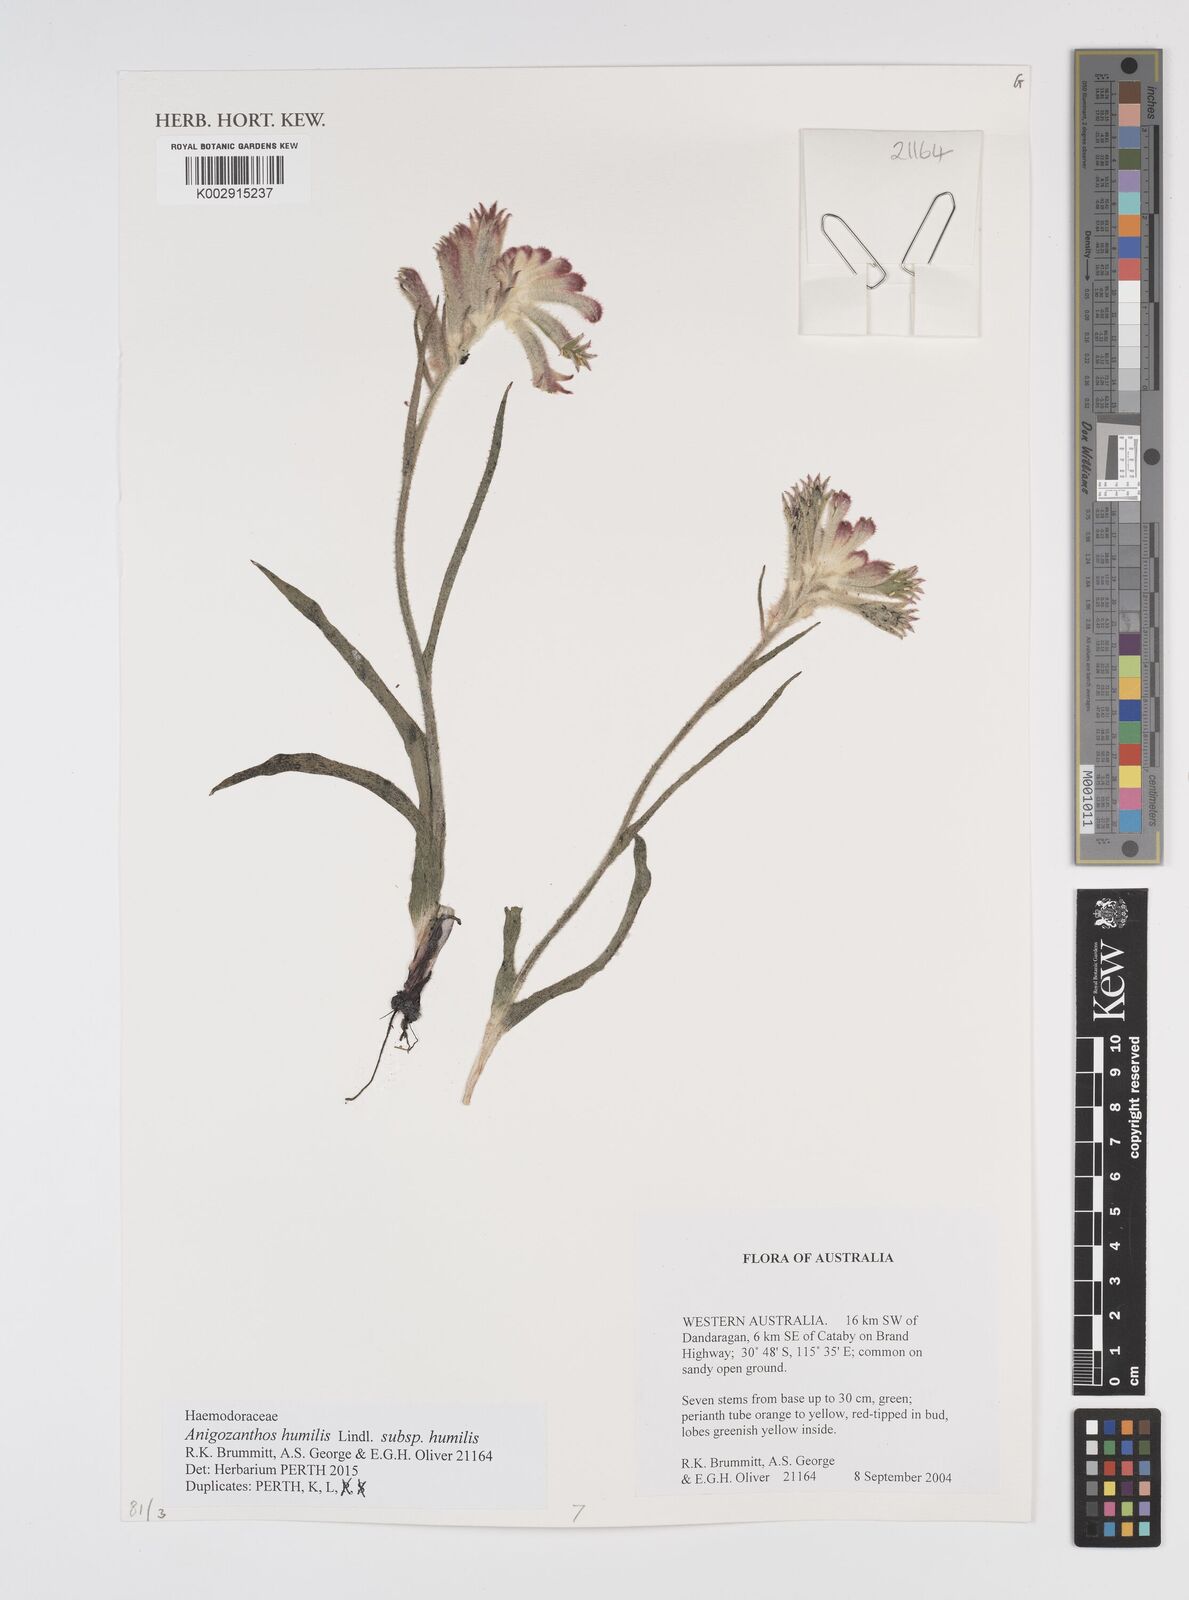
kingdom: Plantae
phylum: Tracheophyta
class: Liliopsida
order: Commelinales
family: Haemodoraceae
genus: Anigozanthos
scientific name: Anigozanthos humilis
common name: Cat's-paw
